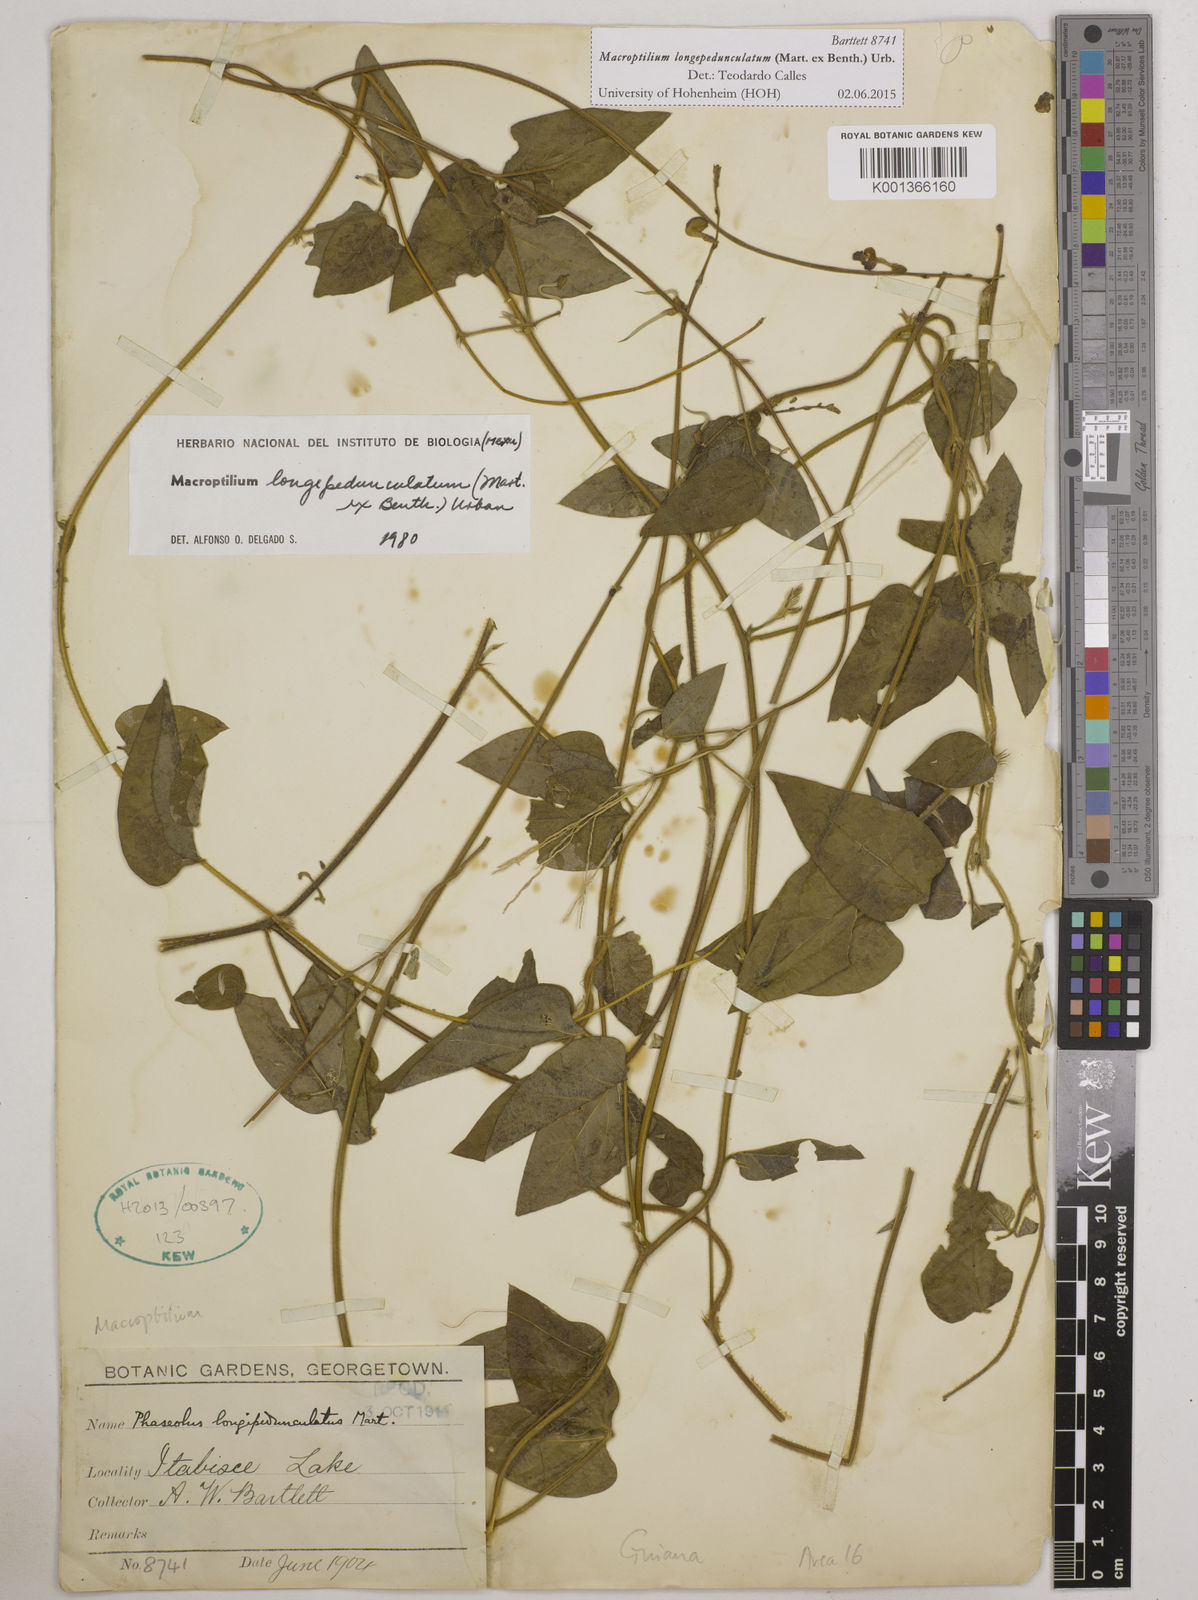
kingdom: Plantae
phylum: Tracheophyta
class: Magnoliopsida
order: Fabales
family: Fabaceae
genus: Macroptilium
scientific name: Macroptilium longepedunculatum
